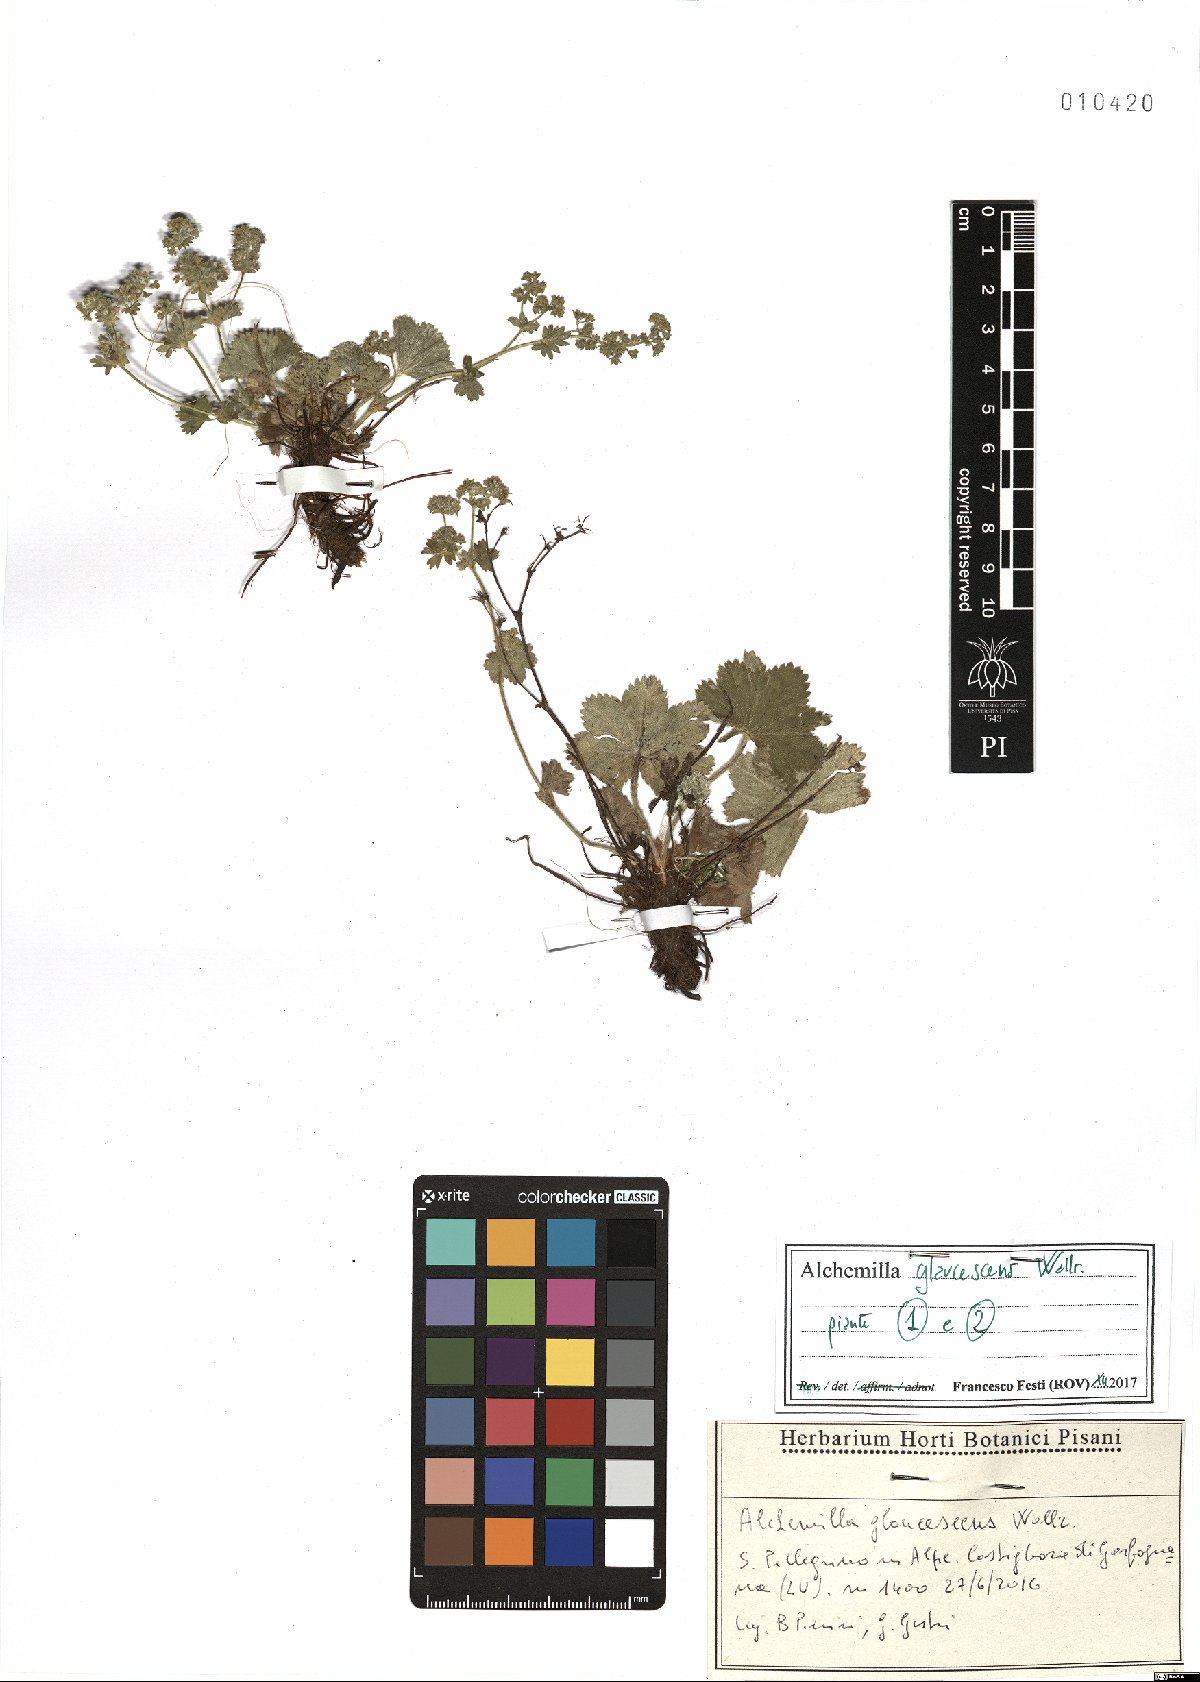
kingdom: Plantae
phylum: Tracheophyta
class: Magnoliopsida
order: Rosales
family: Rosaceae
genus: Alchemilla
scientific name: Alchemilla glaucescens
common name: Silky lady's mantle
